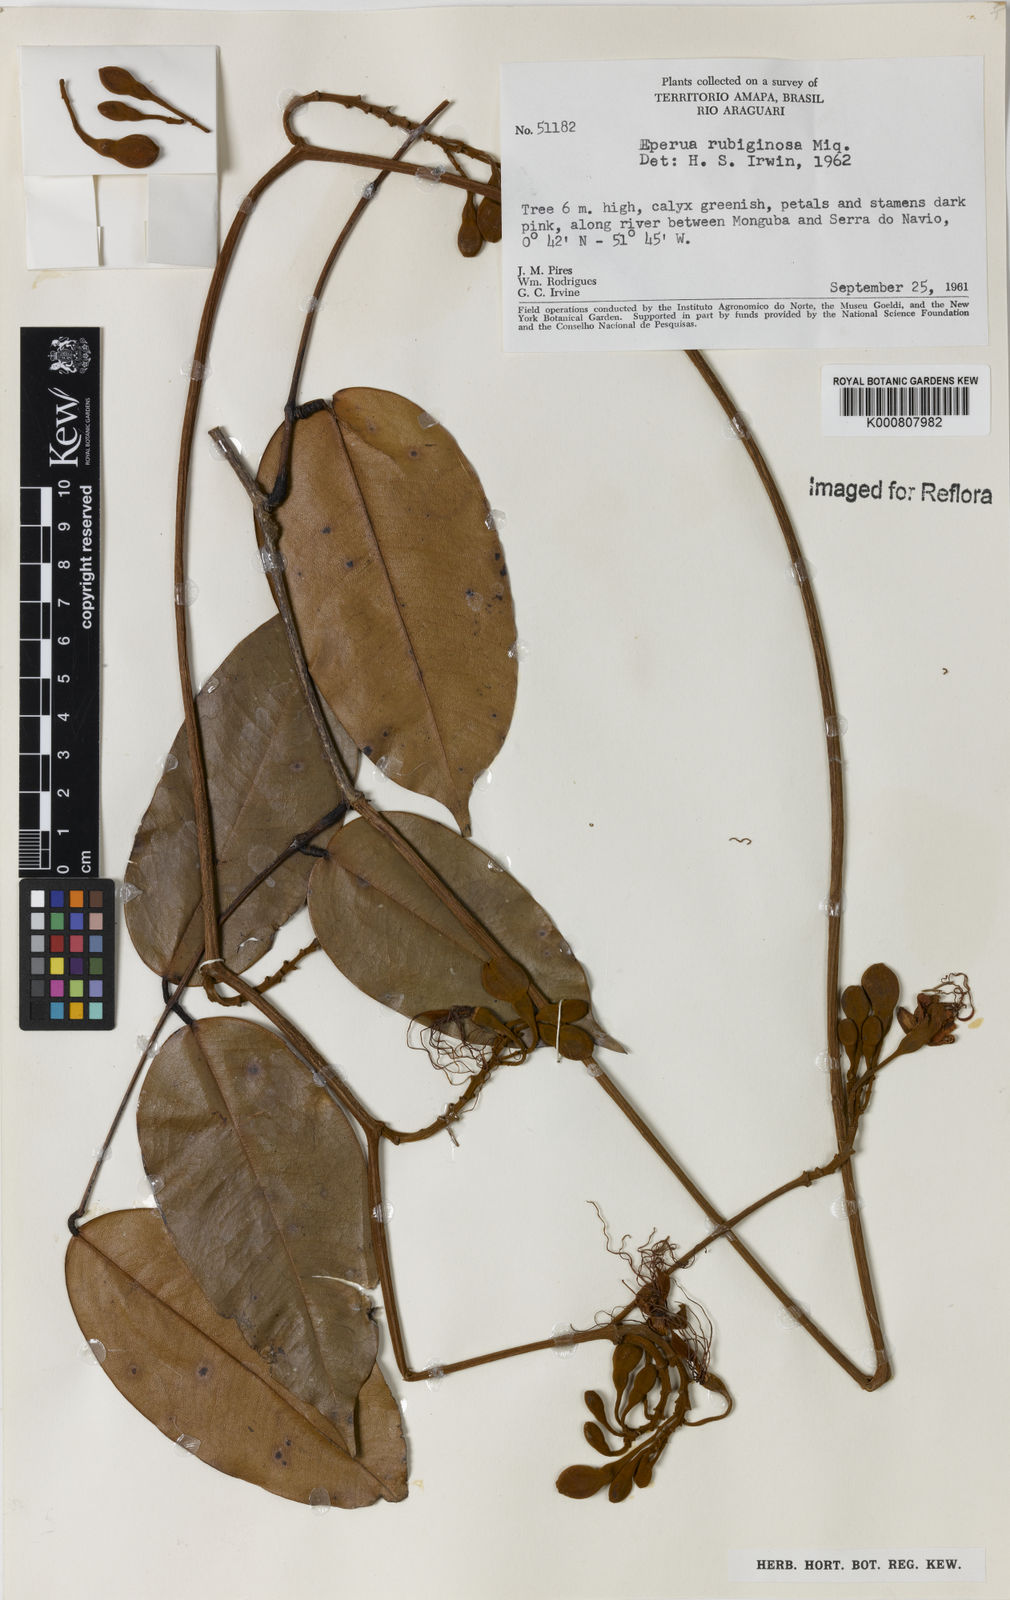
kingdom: Plantae
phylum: Tracheophyta
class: Magnoliopsida
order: Fabales
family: Fabaceae
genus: Eperua
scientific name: Eperua rubiginosa
